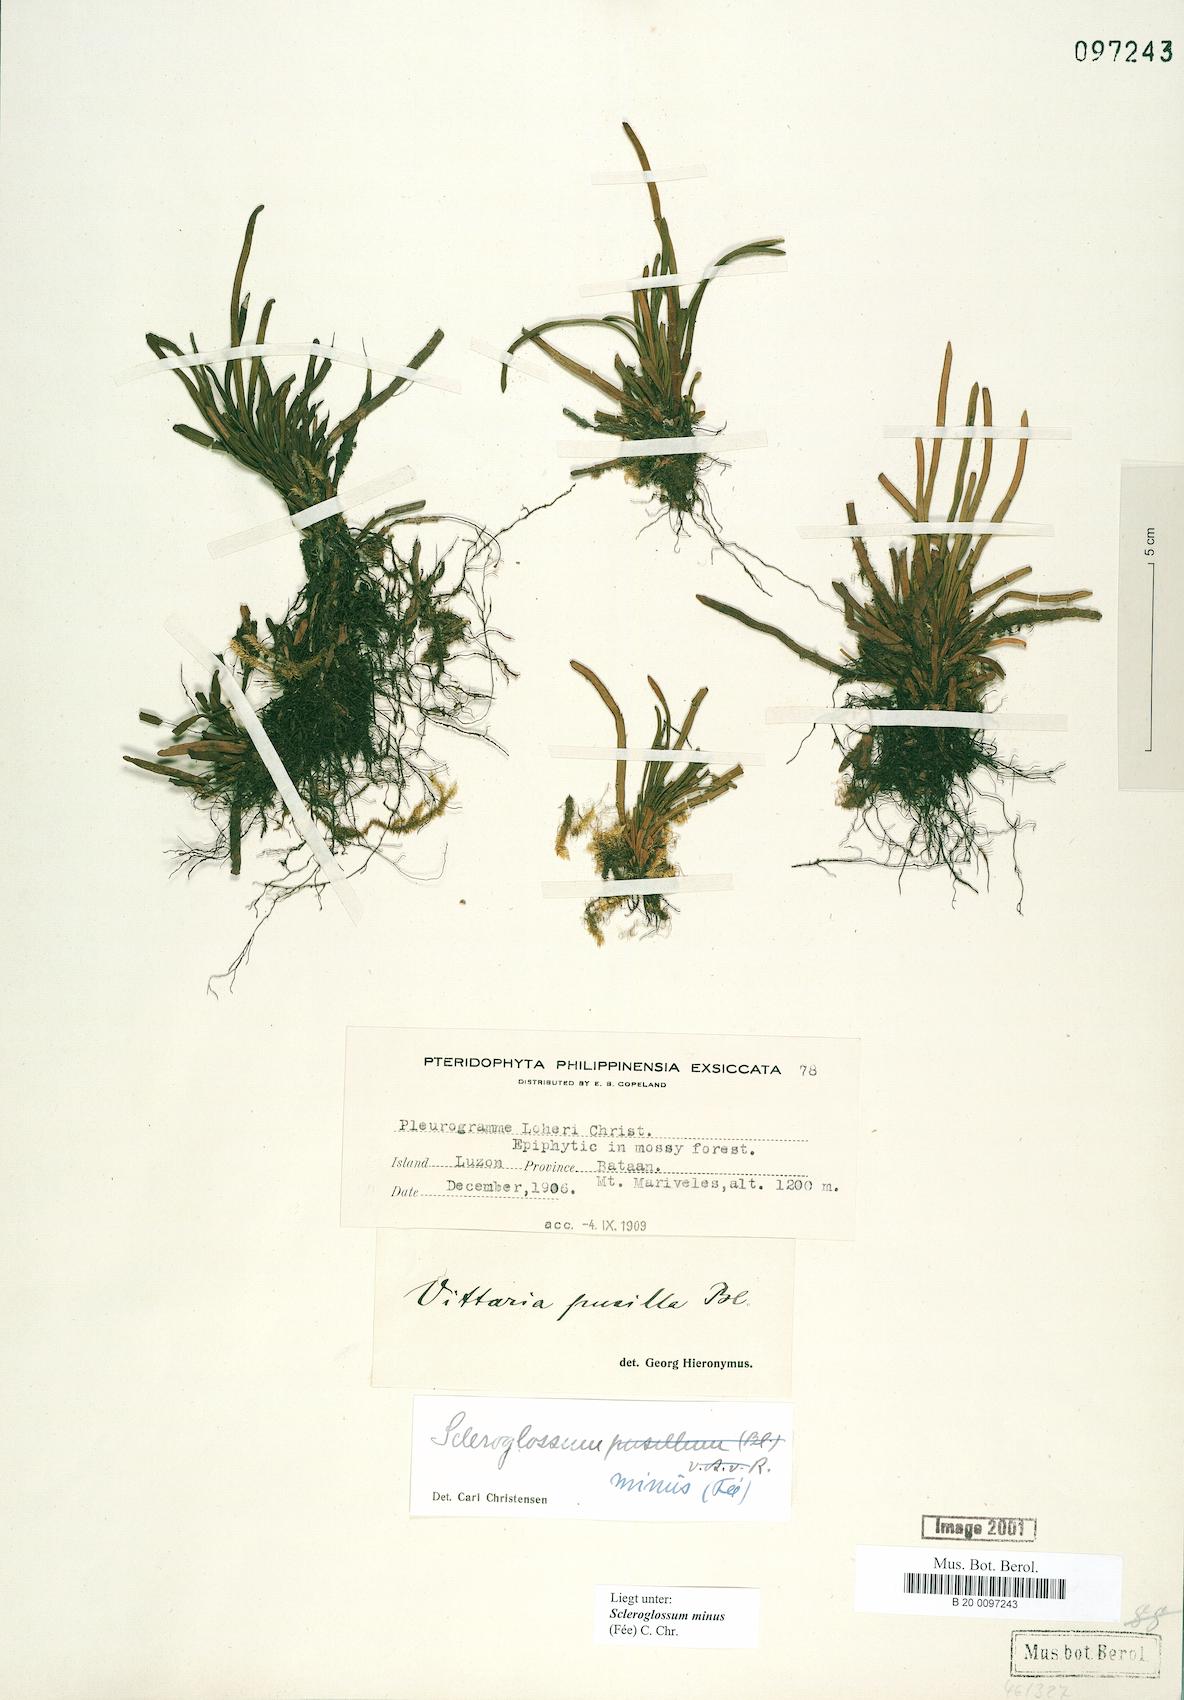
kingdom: Plantae
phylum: Tracheophyta
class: Polypodiopsida
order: Polypodiales
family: Polypodiaceae
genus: Scleroglossum
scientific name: Scleroglossum pusillum
